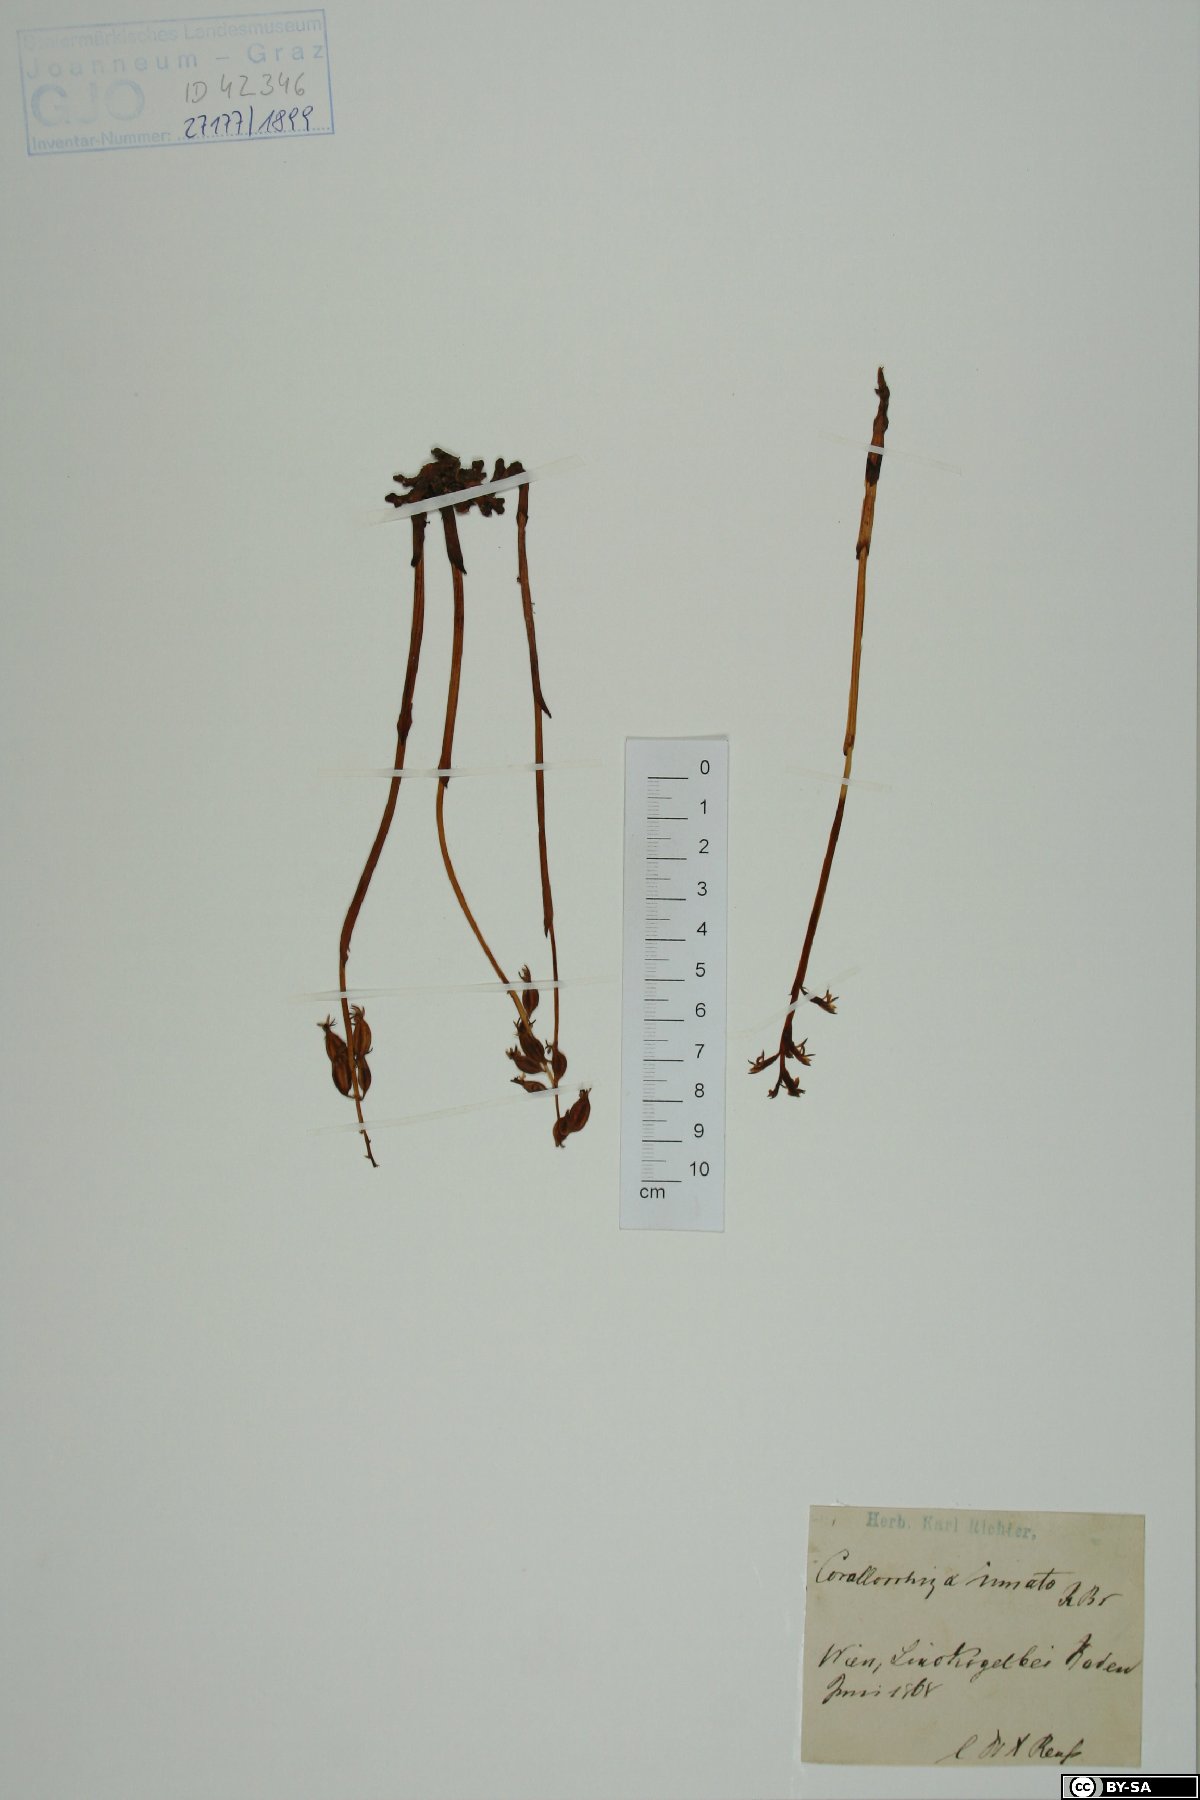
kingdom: Plantae
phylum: Tracheophyta
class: Liliopsida
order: Asparagales
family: Orchidaceae
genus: Corallorhiza
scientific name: Corallorhiza trifida
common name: Yellow coralroot
